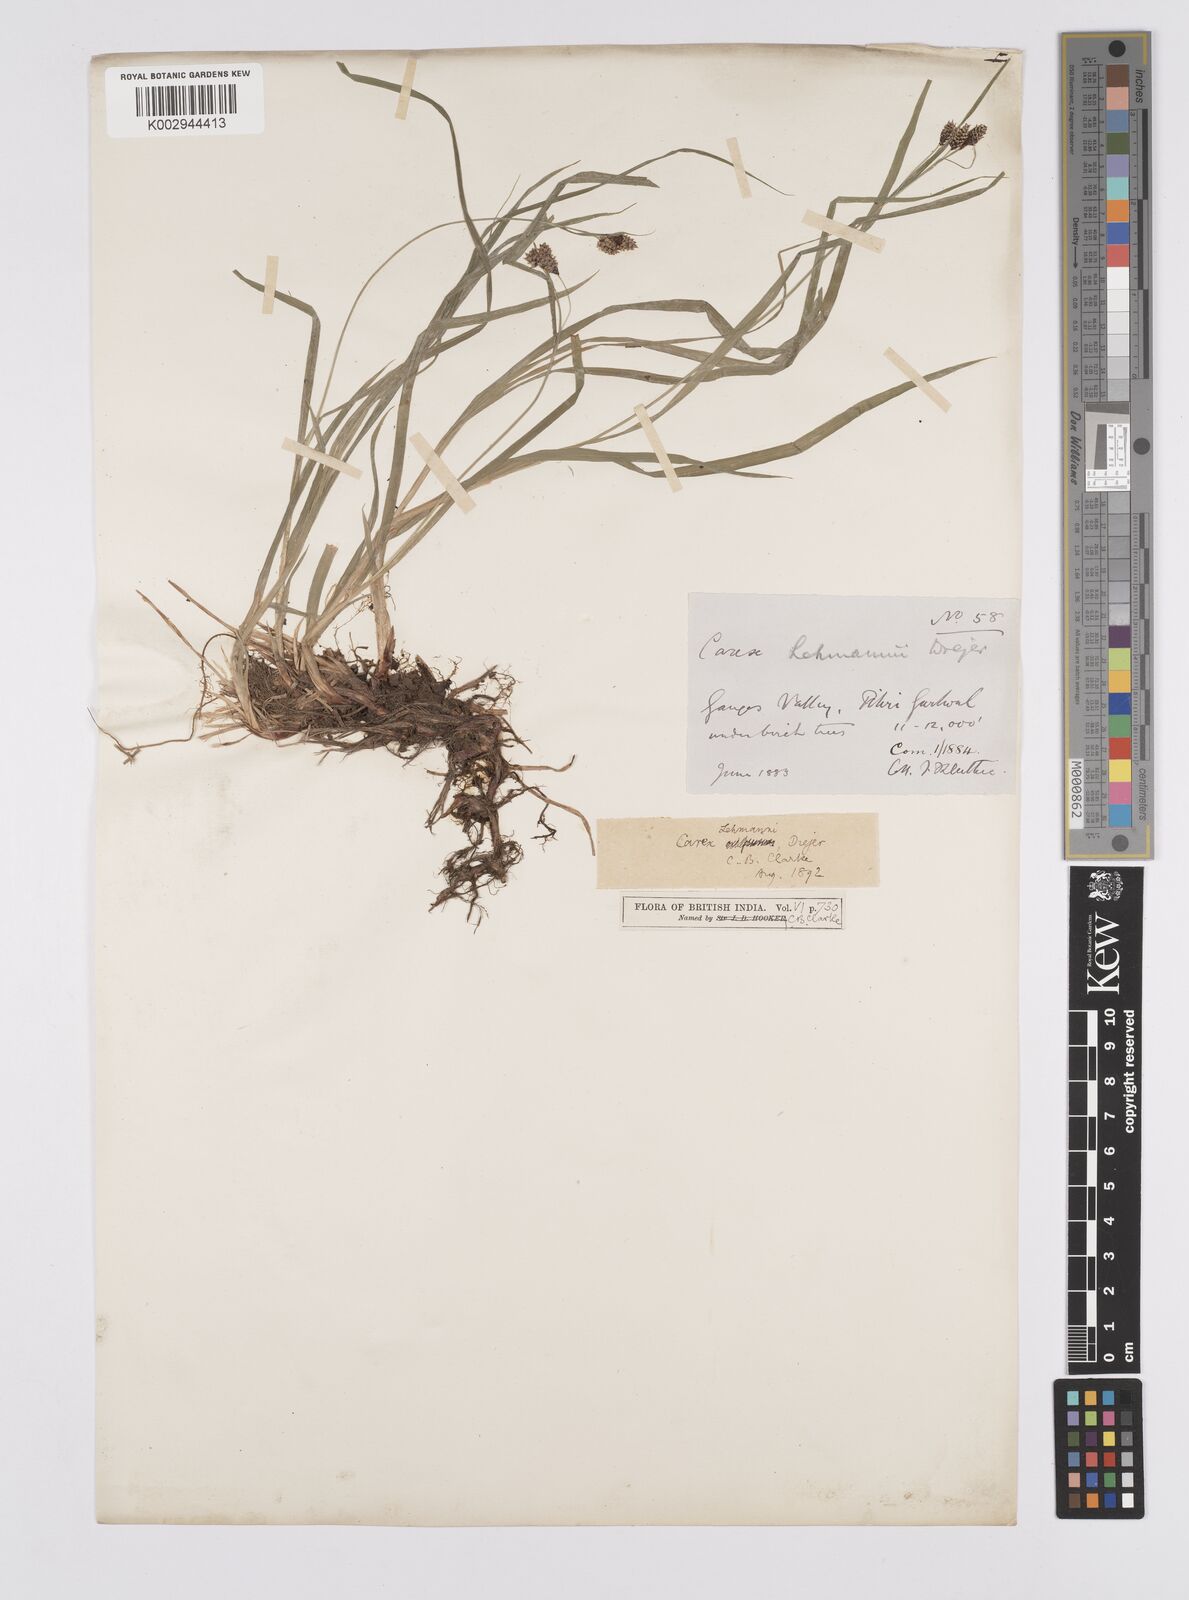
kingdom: Plantae
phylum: Tracheophyta
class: Liliopsida
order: Poales
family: Cyperaceae
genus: Carex
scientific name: Carex lehmannii
